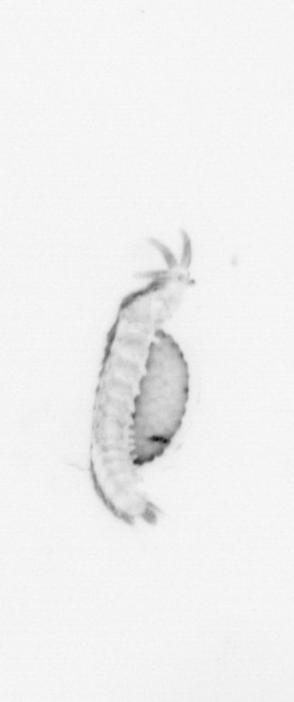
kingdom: Animalia
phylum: Annelida
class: Polychaeta
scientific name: Polychaeta
